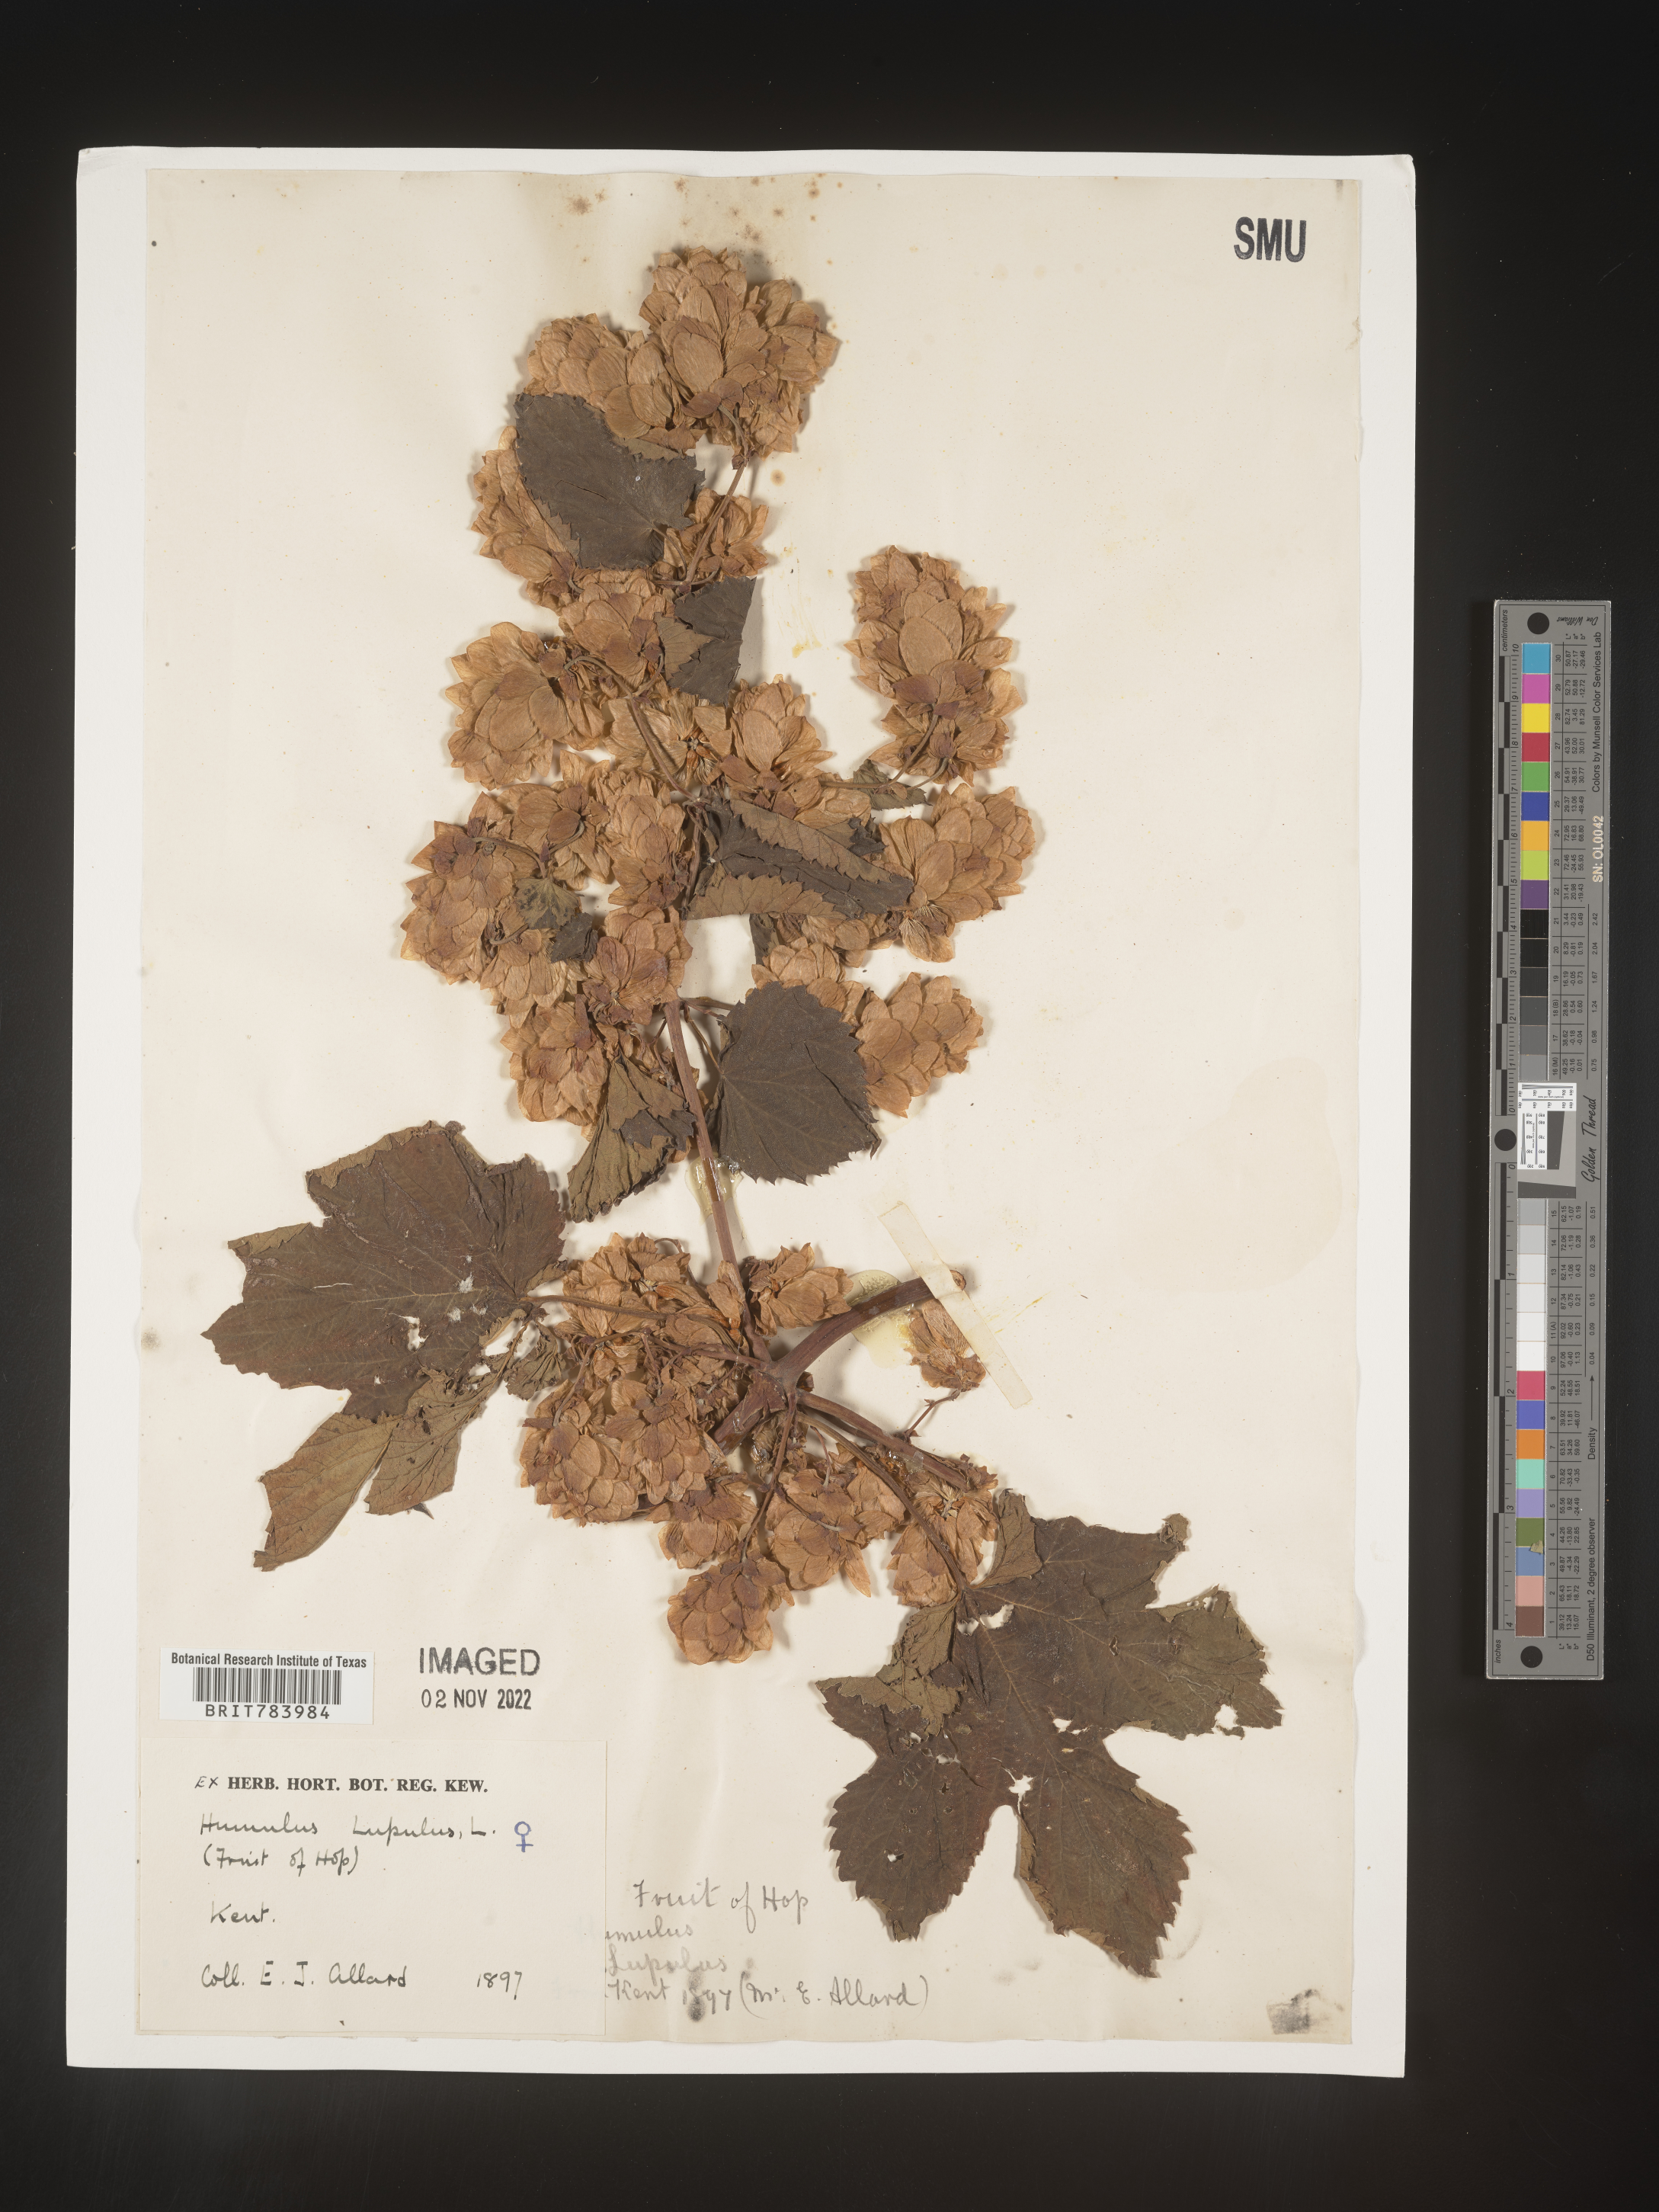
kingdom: Plantae
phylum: Tracheophyta
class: Magnoliopsida
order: Rosales
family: Cannabaceae
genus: Humulus
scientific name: Humulus
